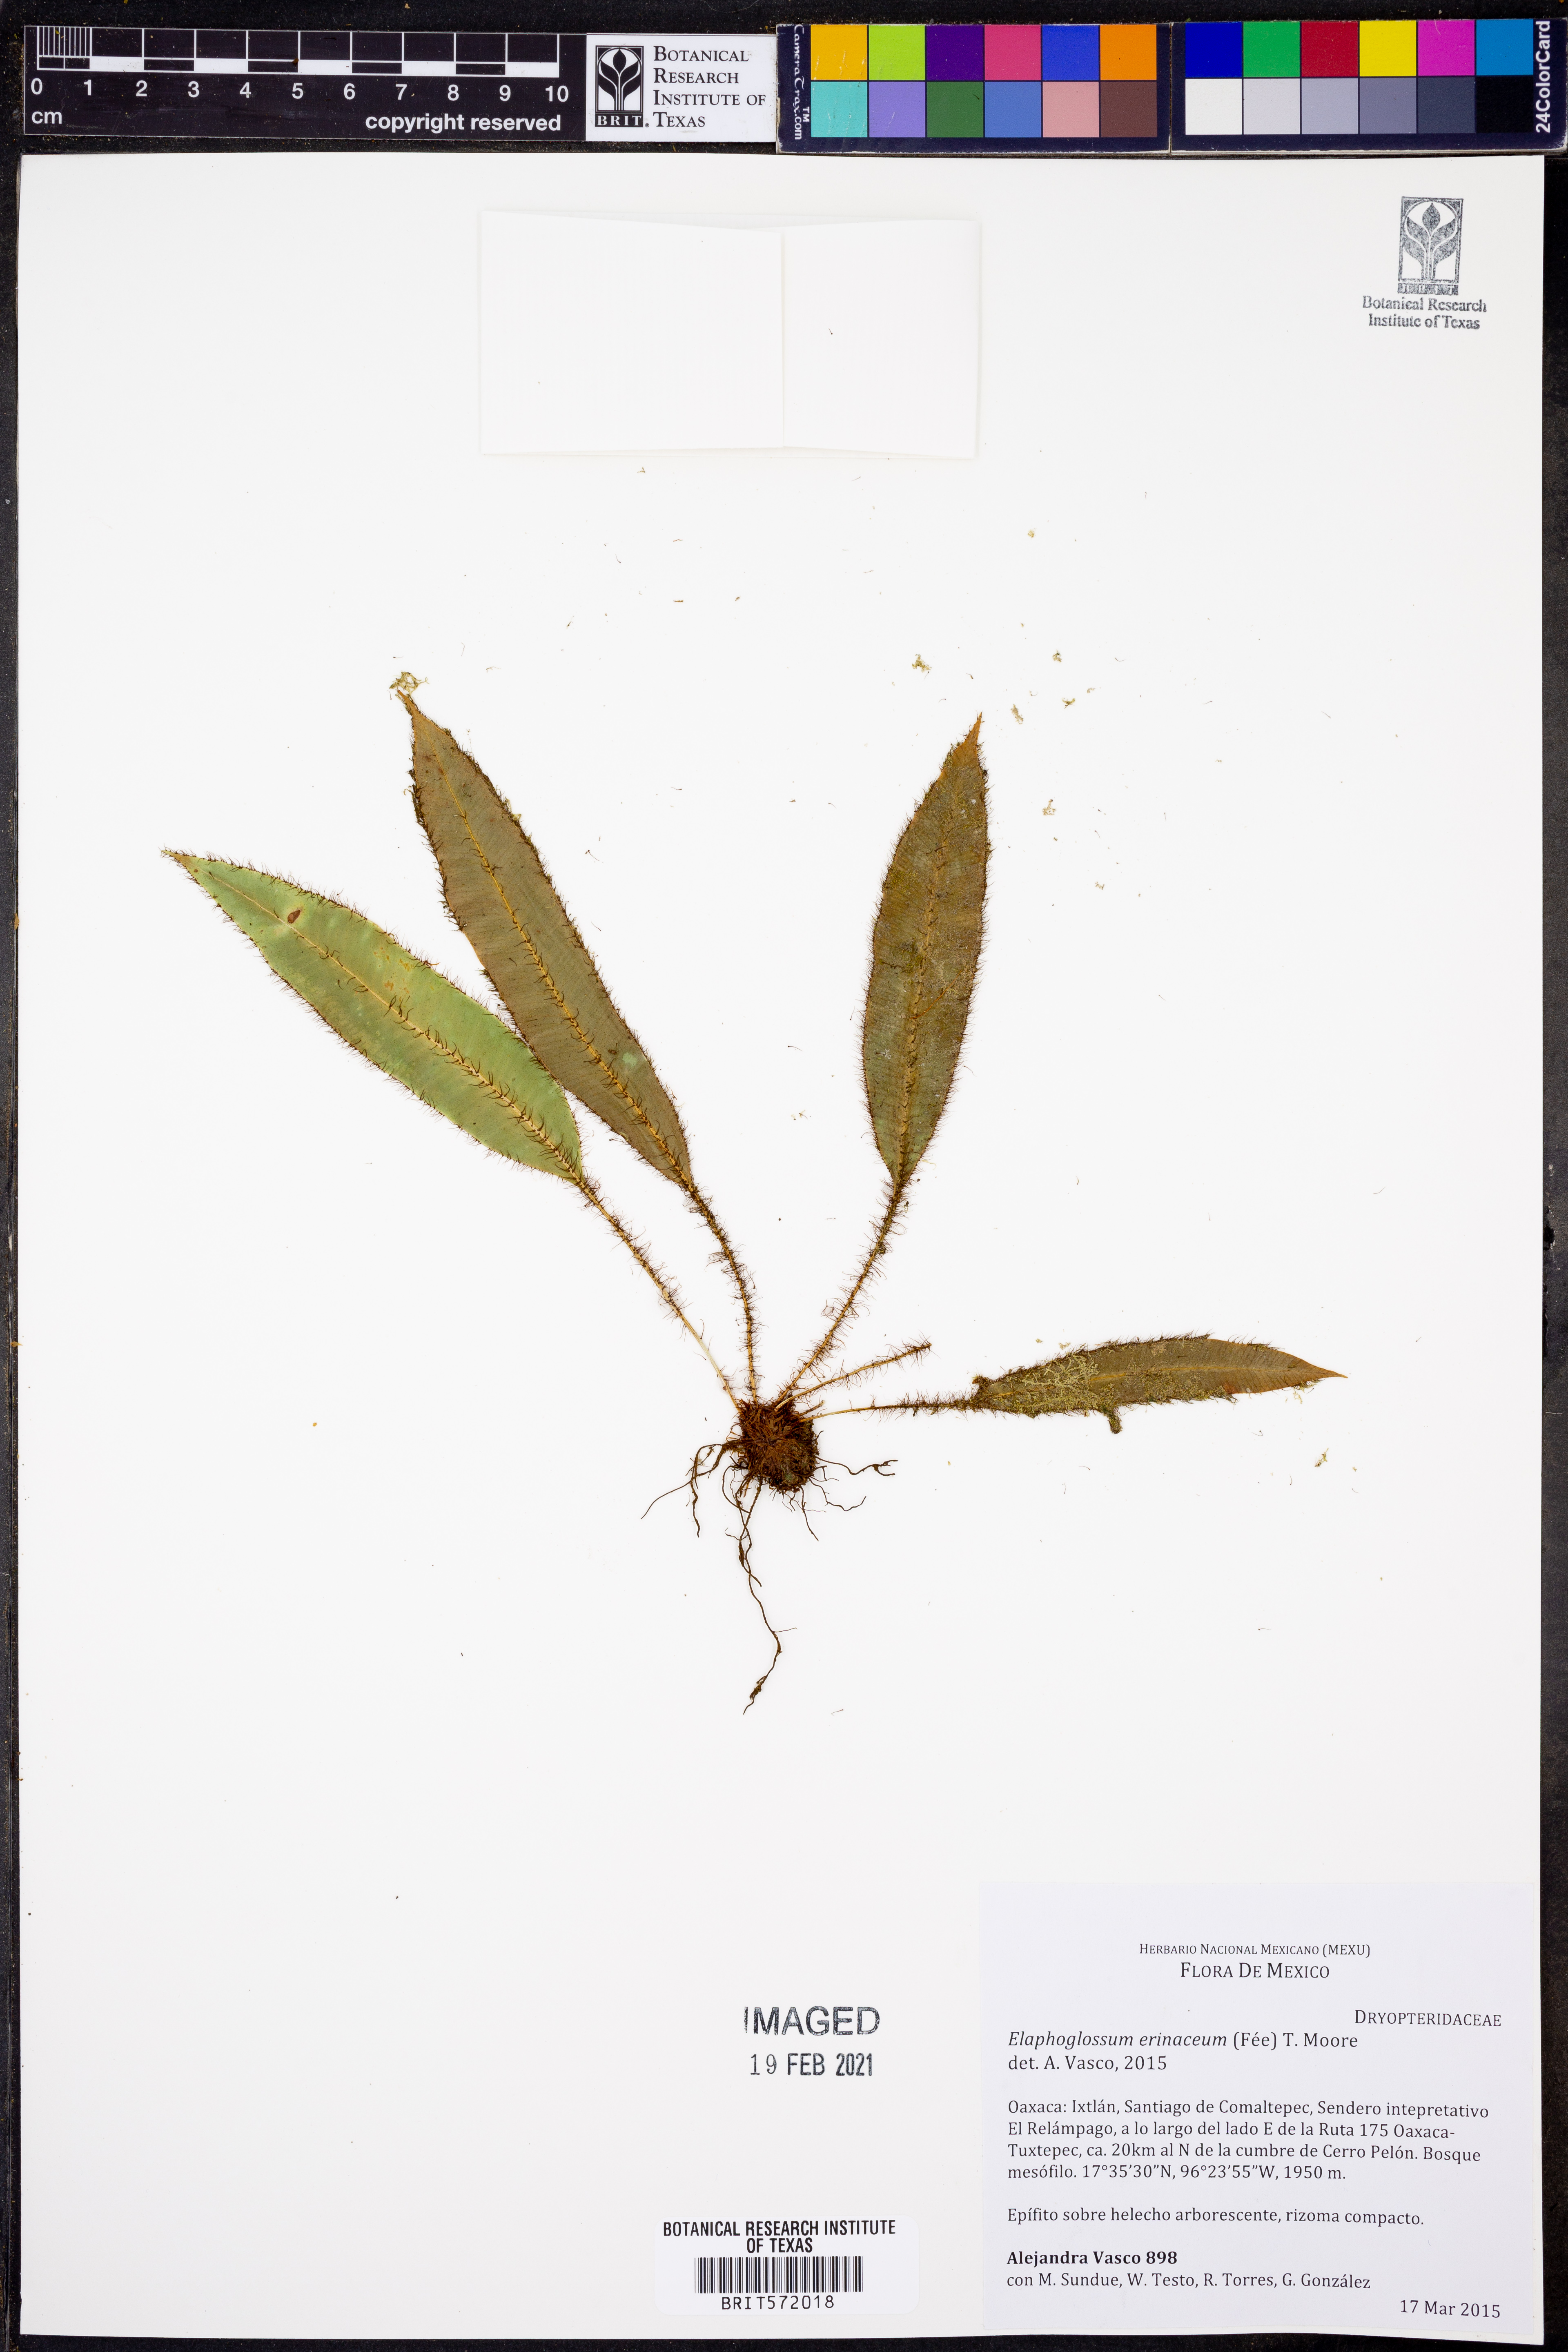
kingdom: Plantae
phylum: Tracheophyta
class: Polypodiopsida
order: Polypodiales
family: Dryopteridaceae
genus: Elaphoglossum
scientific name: Elaphoglossum erinaceum
